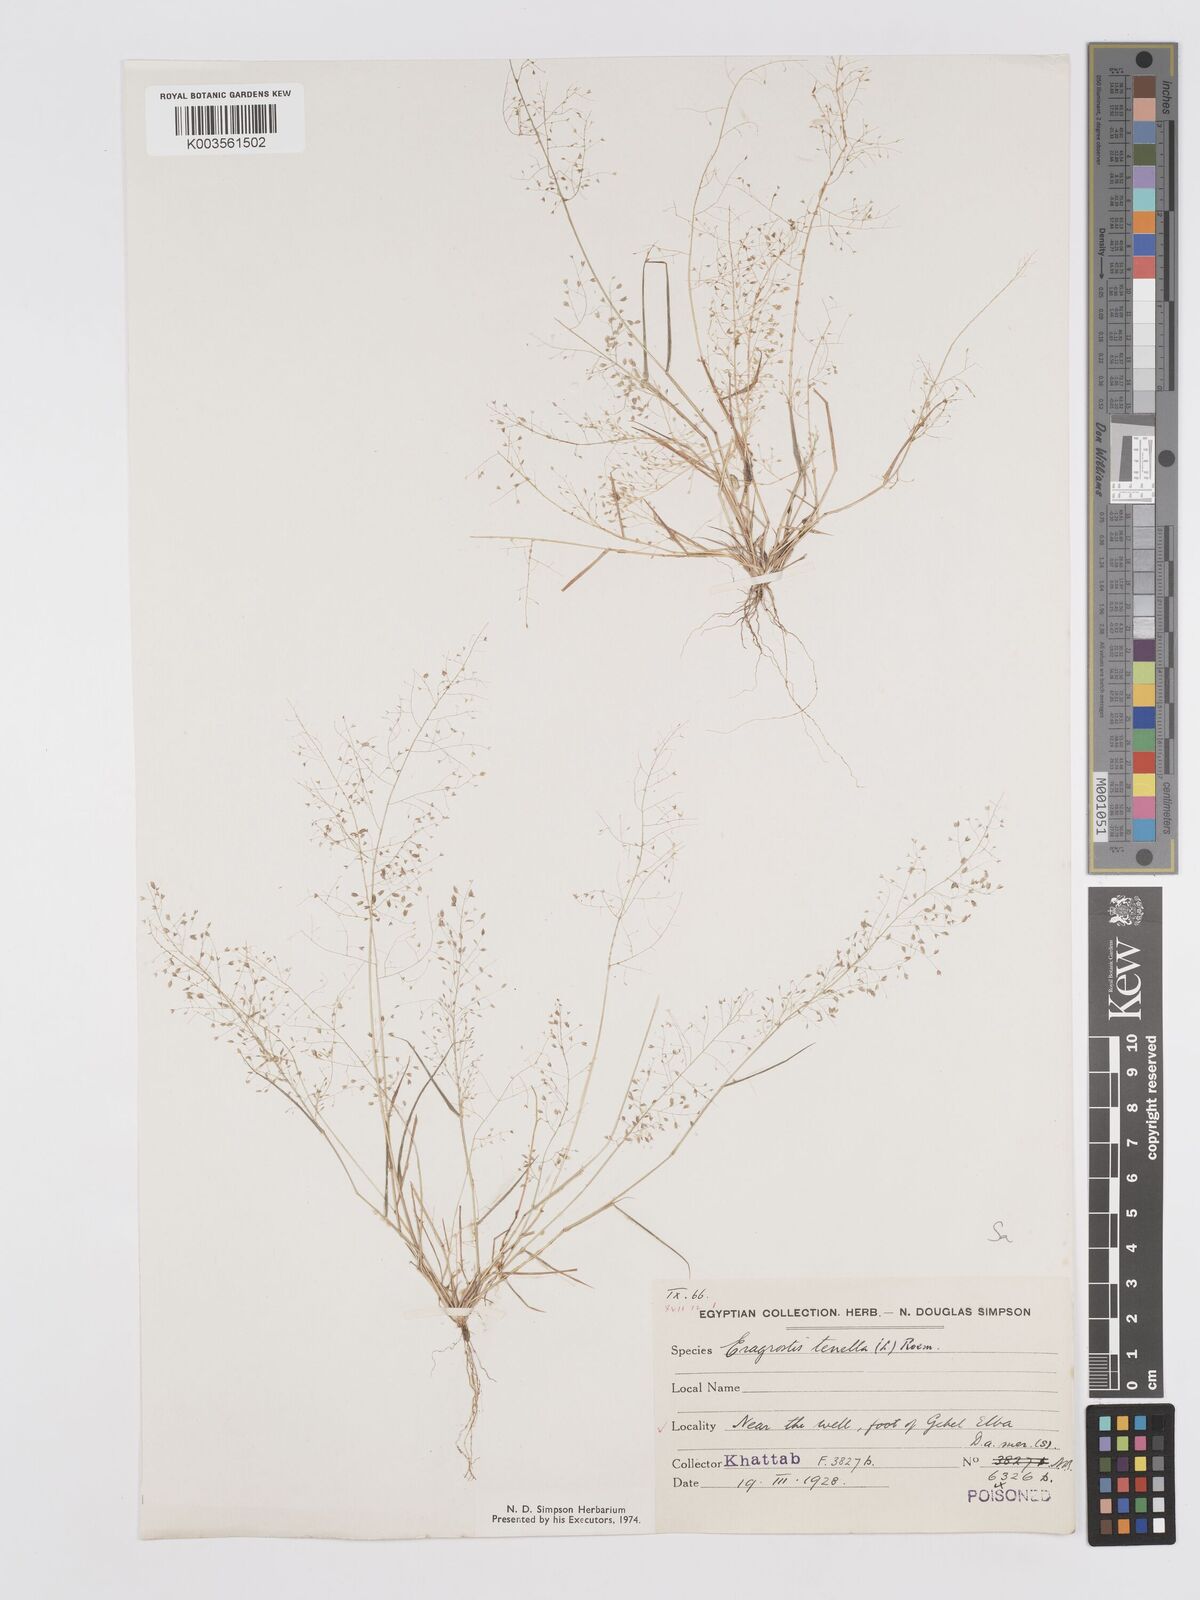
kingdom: Plantae
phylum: Tracheophyta
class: Liliopsida
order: Poales
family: Poaceae
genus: Eragrostis
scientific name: Eragrostis lepida
